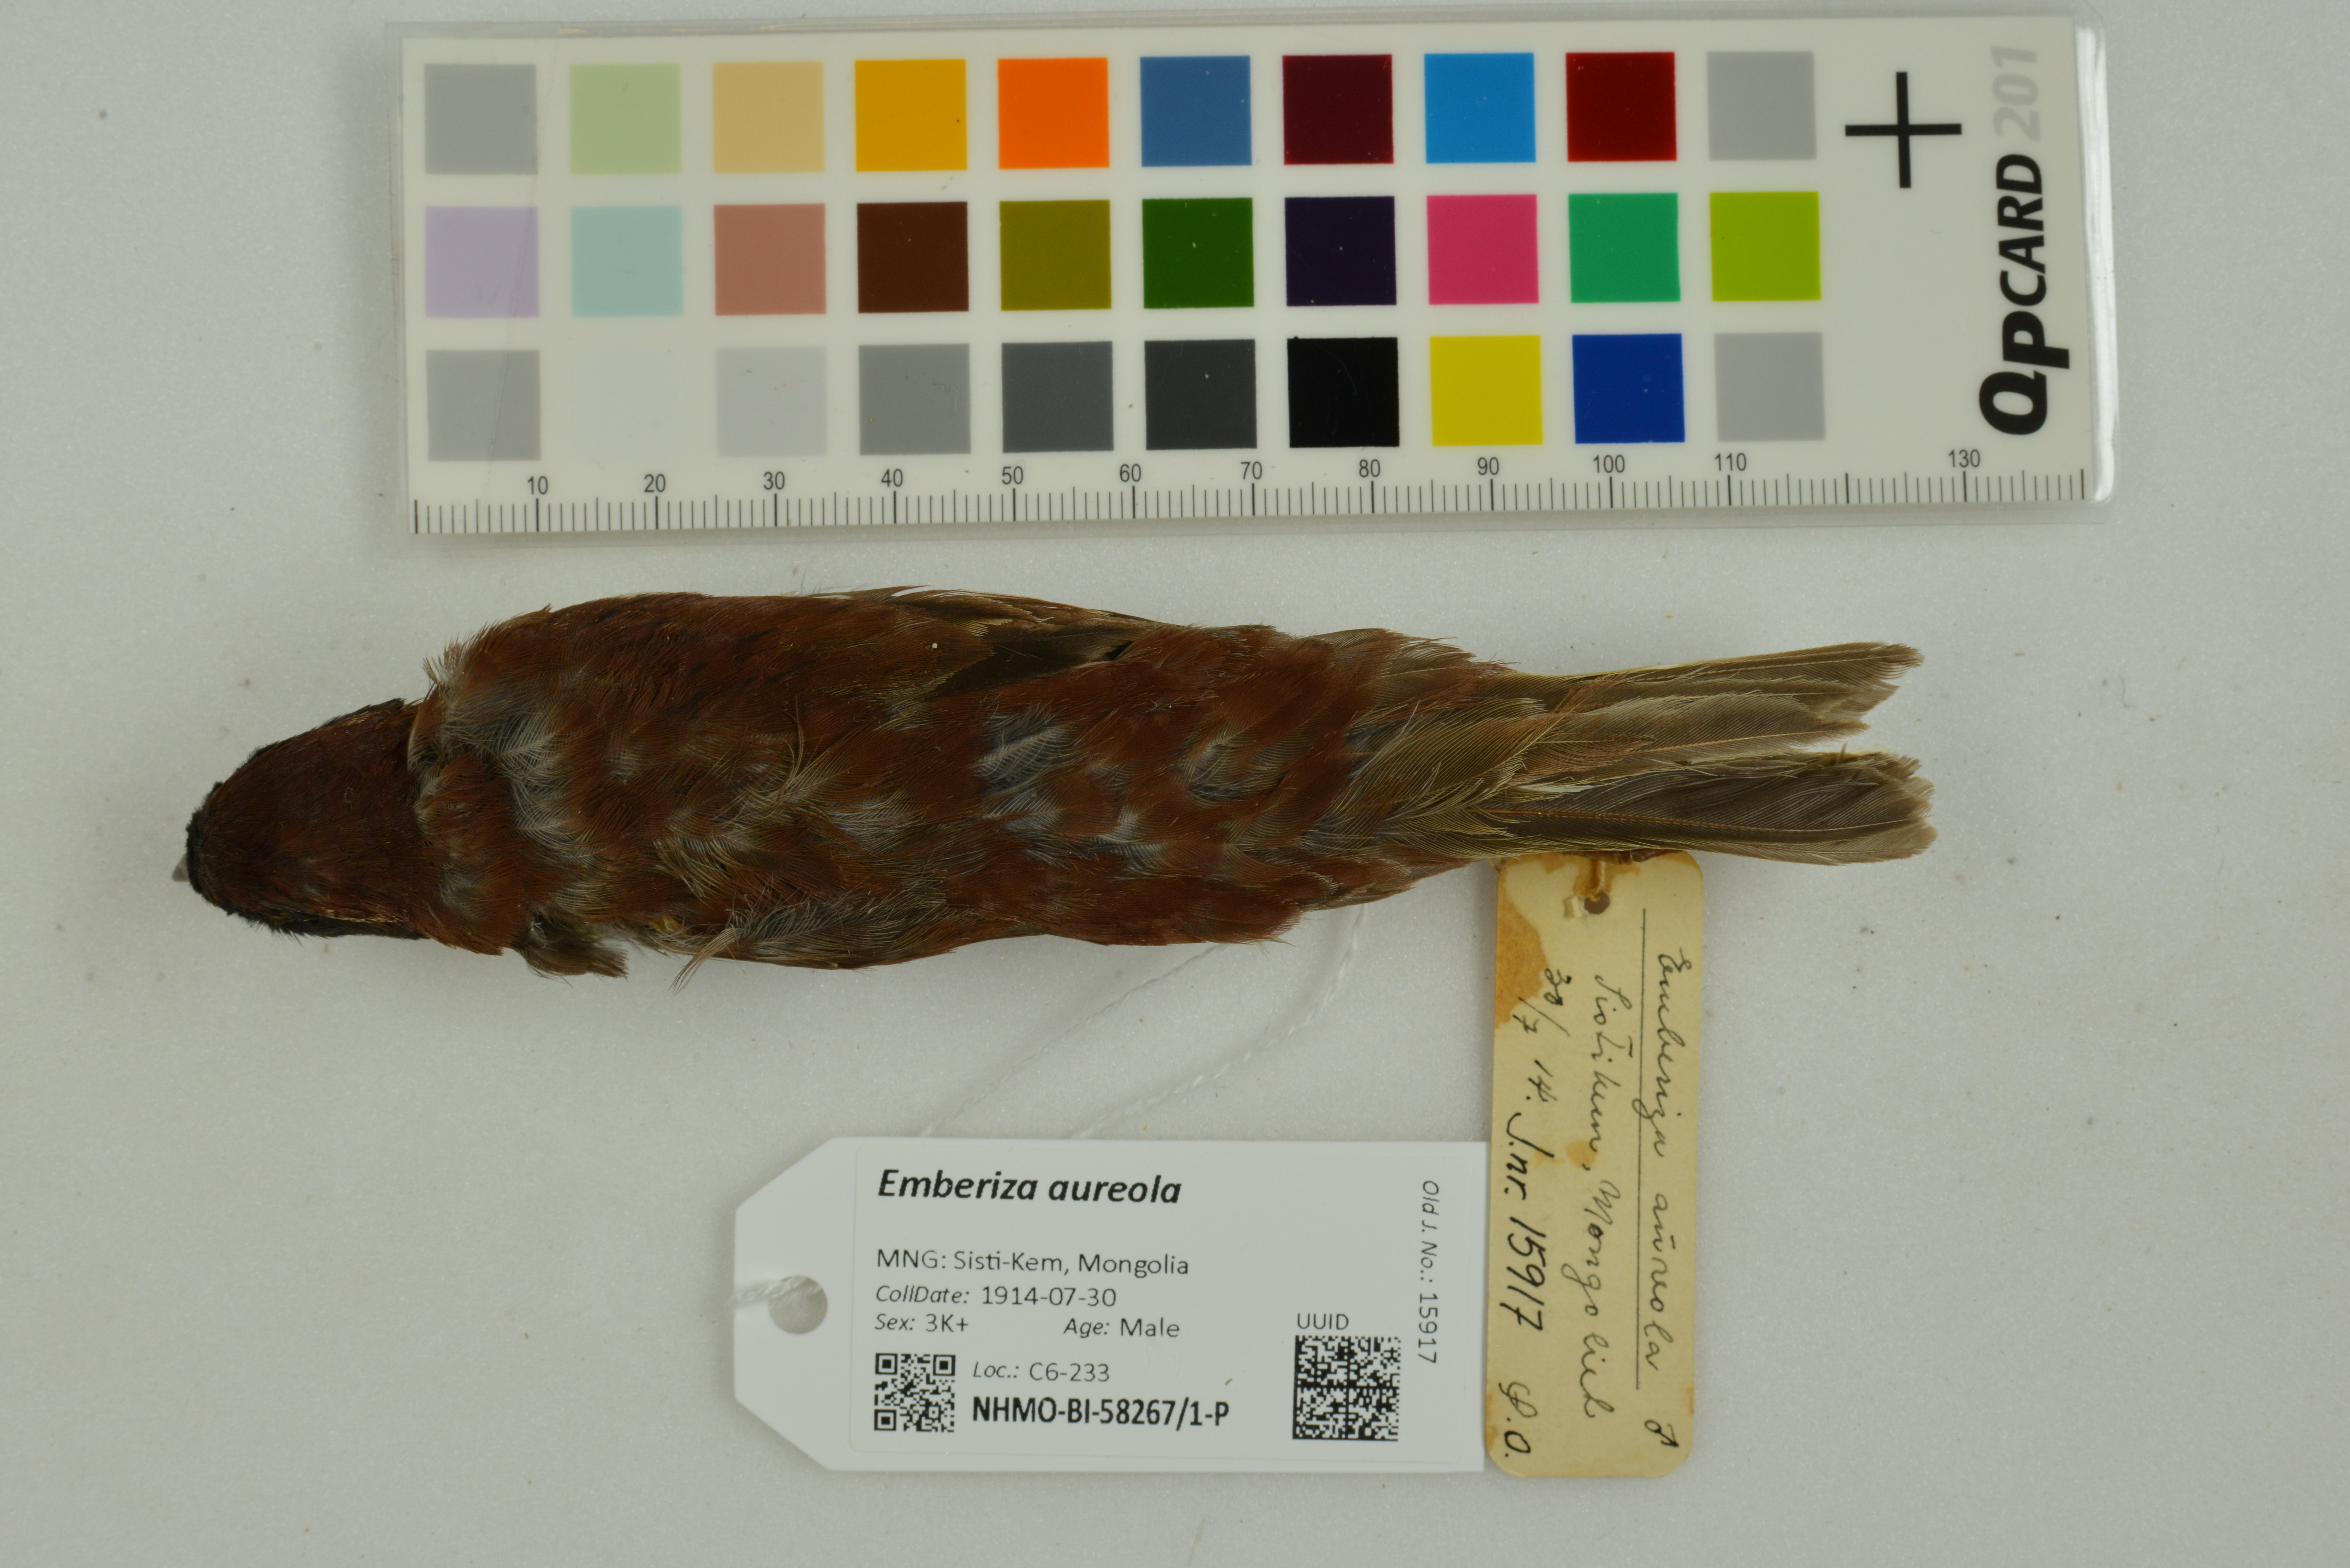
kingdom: Animalia
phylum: Chordata
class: Aves
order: Passeriformes
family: Emberizidae
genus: Emberiza
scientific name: Emberiza aureola
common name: Yellow-breasted bunting
